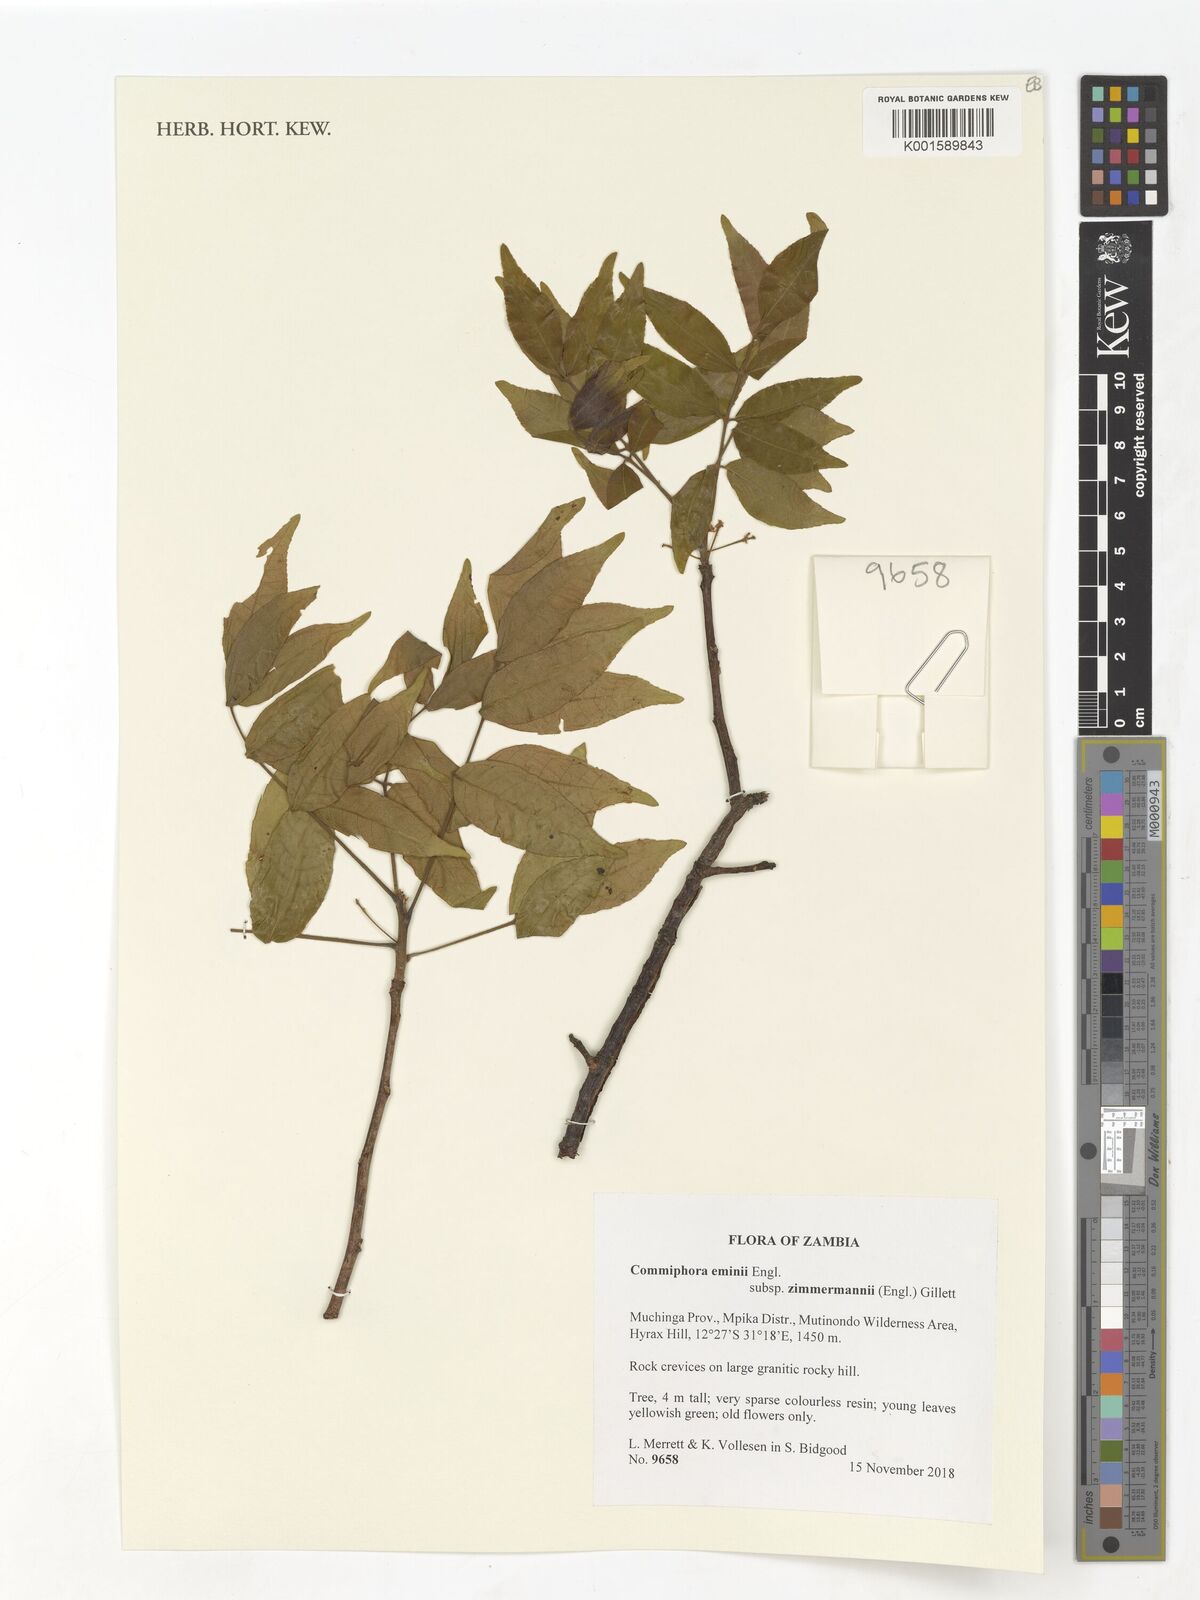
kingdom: Plantae
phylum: Tracheophyta
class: Magnoliopsida
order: Sapindales
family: Burseraceae
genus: Commiphora
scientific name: Commiphora eminii
